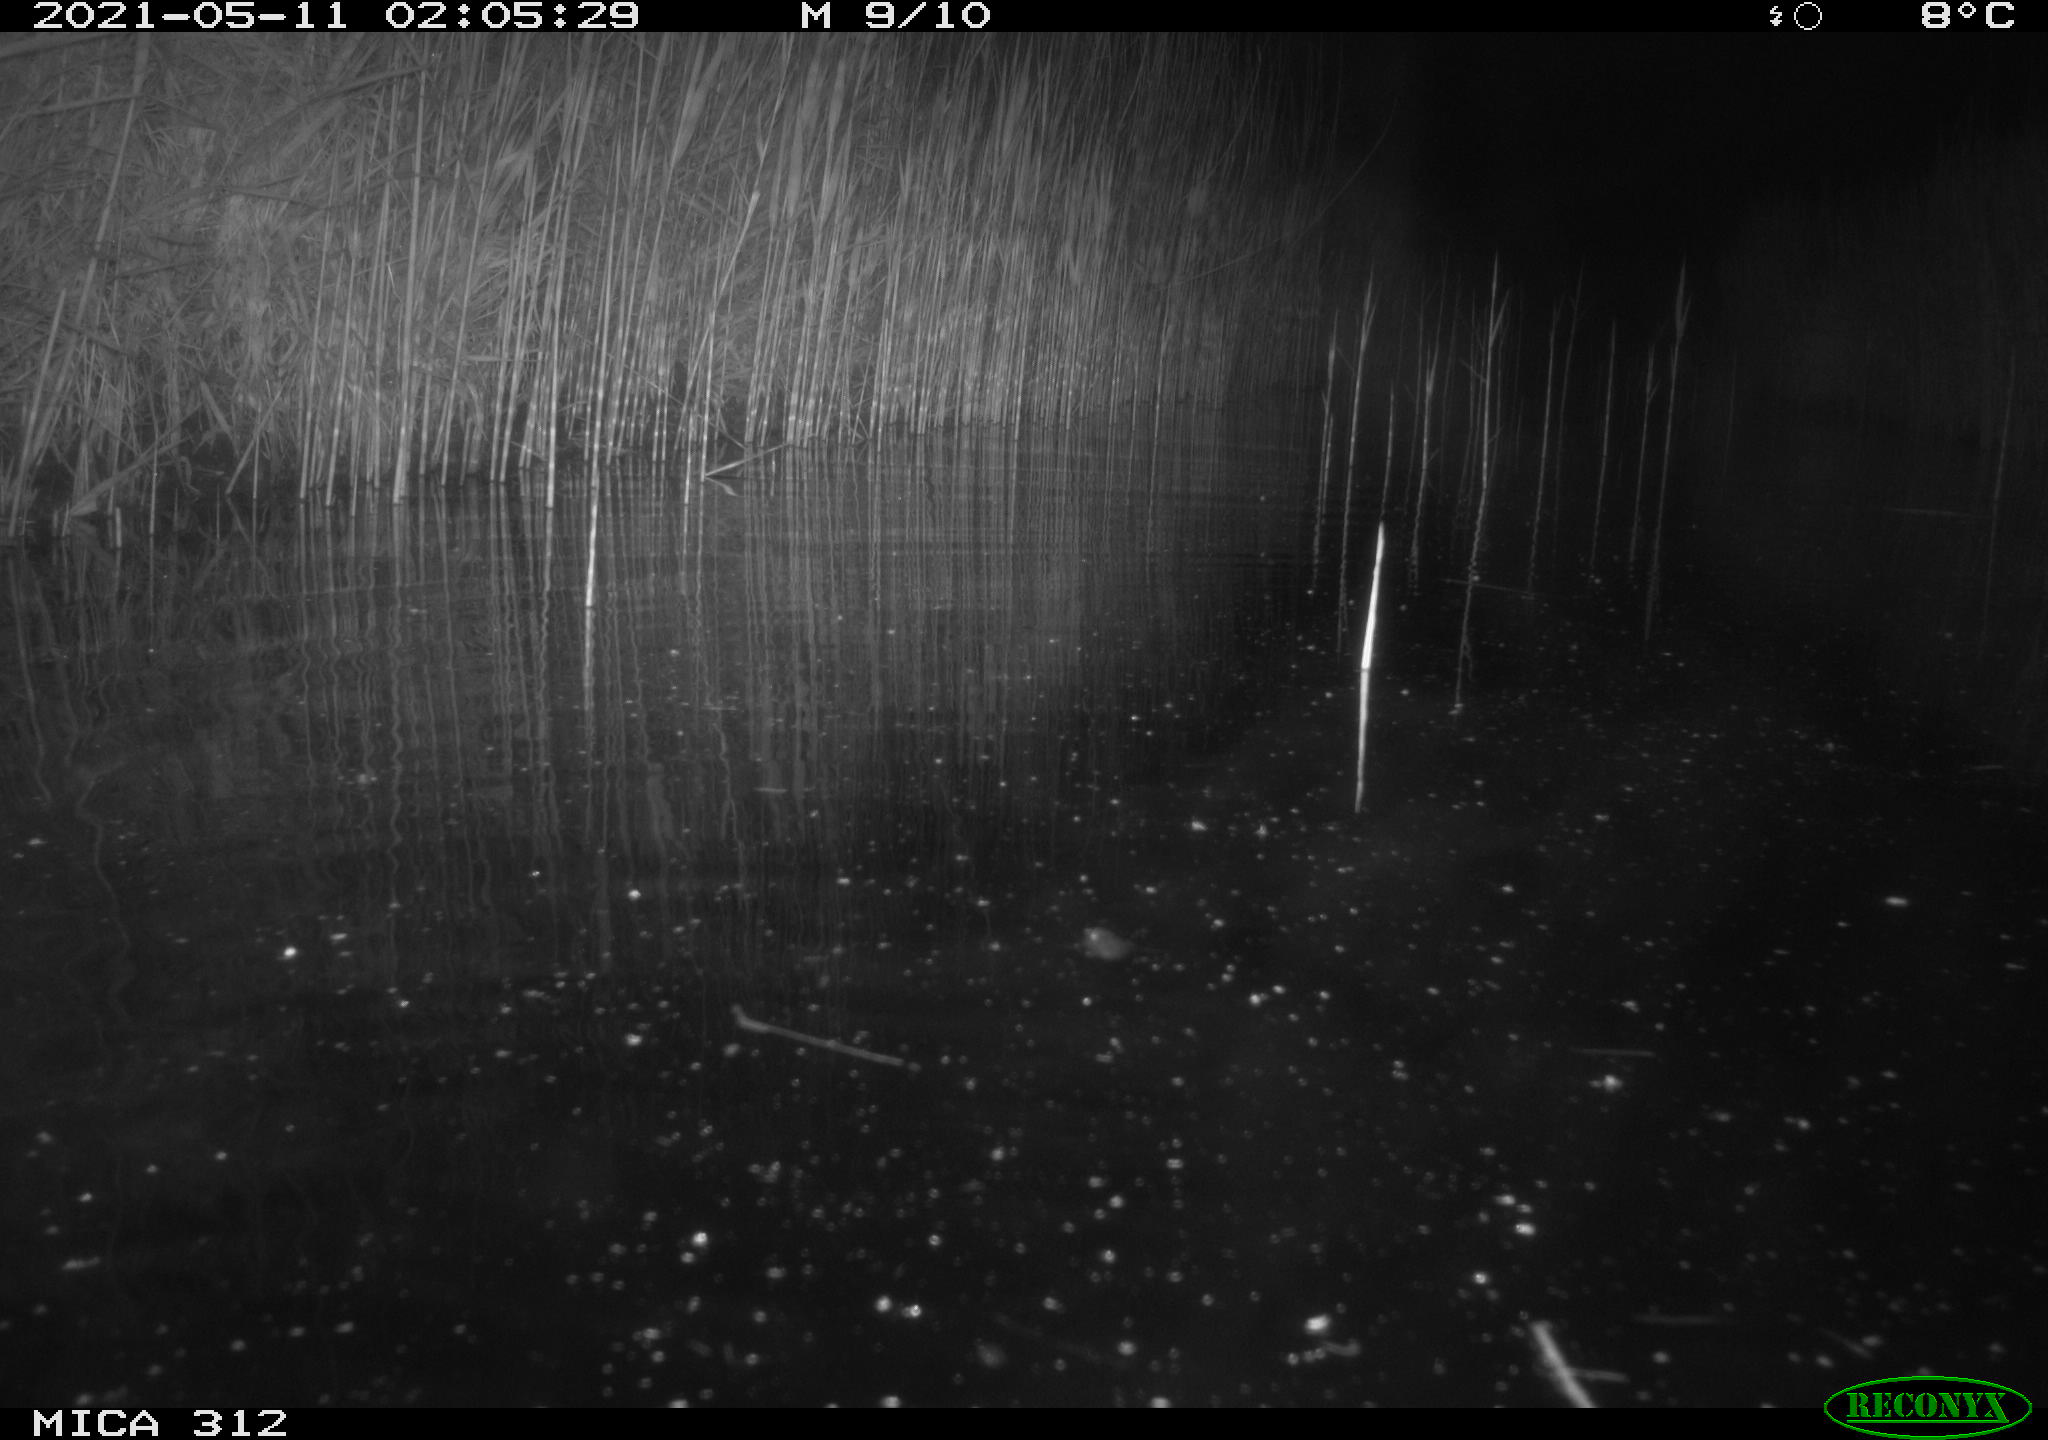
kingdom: Animalia
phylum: Chordata
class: Mammalia
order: Rodentia
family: Muridae
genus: Rattus
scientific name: Rattus norvegicus
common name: Brown rat
